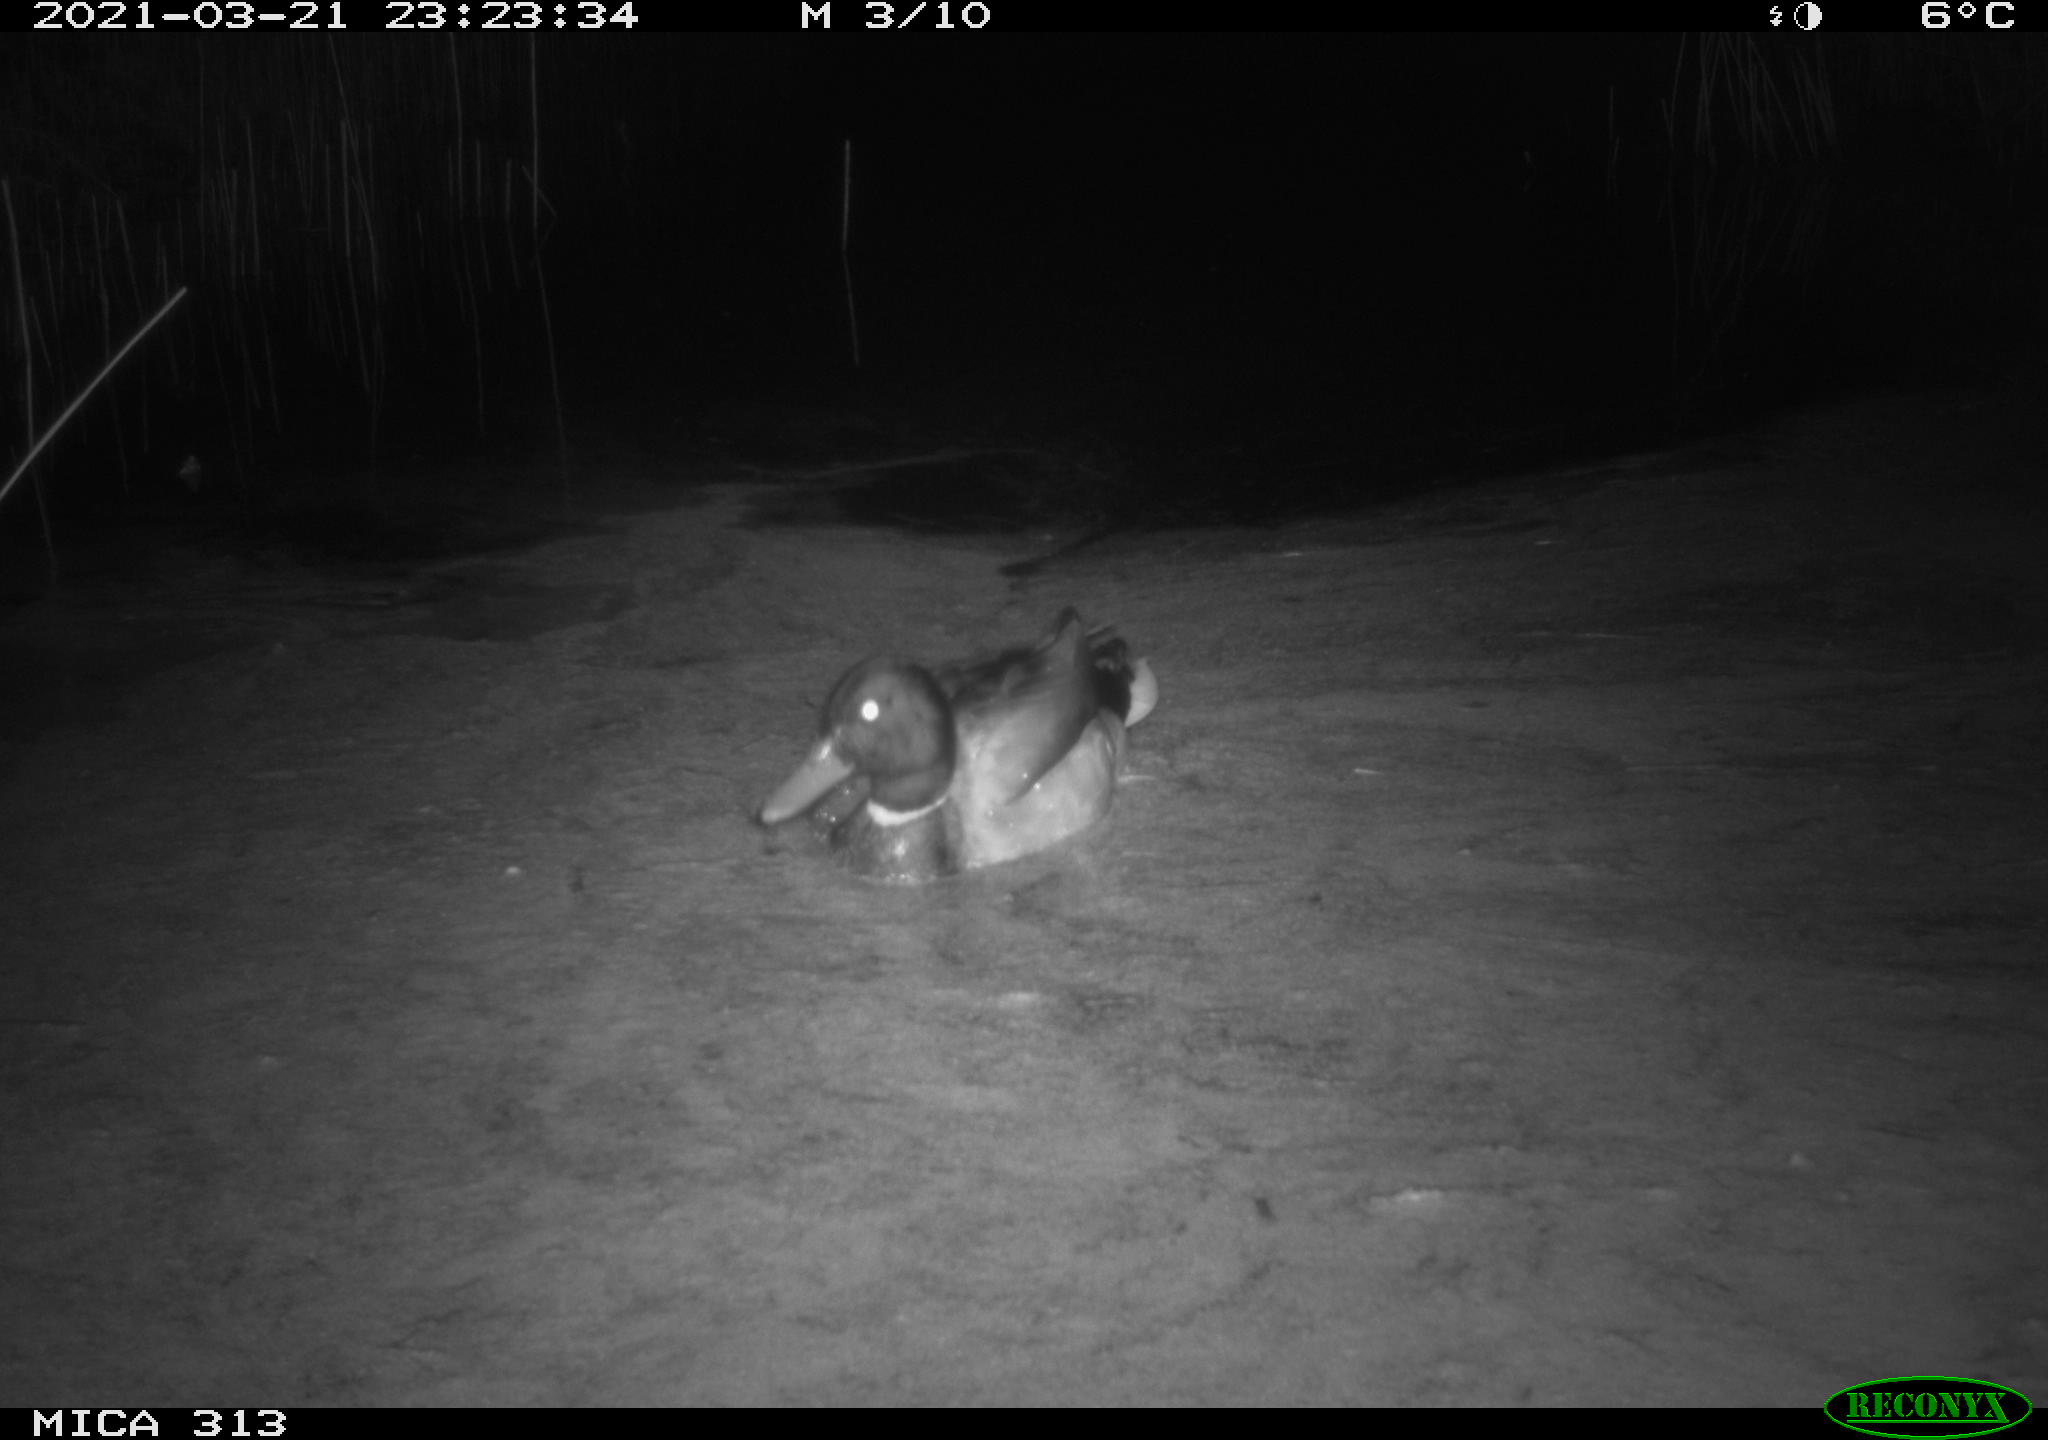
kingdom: Animalia
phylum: Chordata
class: Aves
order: Anseriformes
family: Anatidae
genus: Anas
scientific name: Anas platyrhynchos
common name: Mallard
